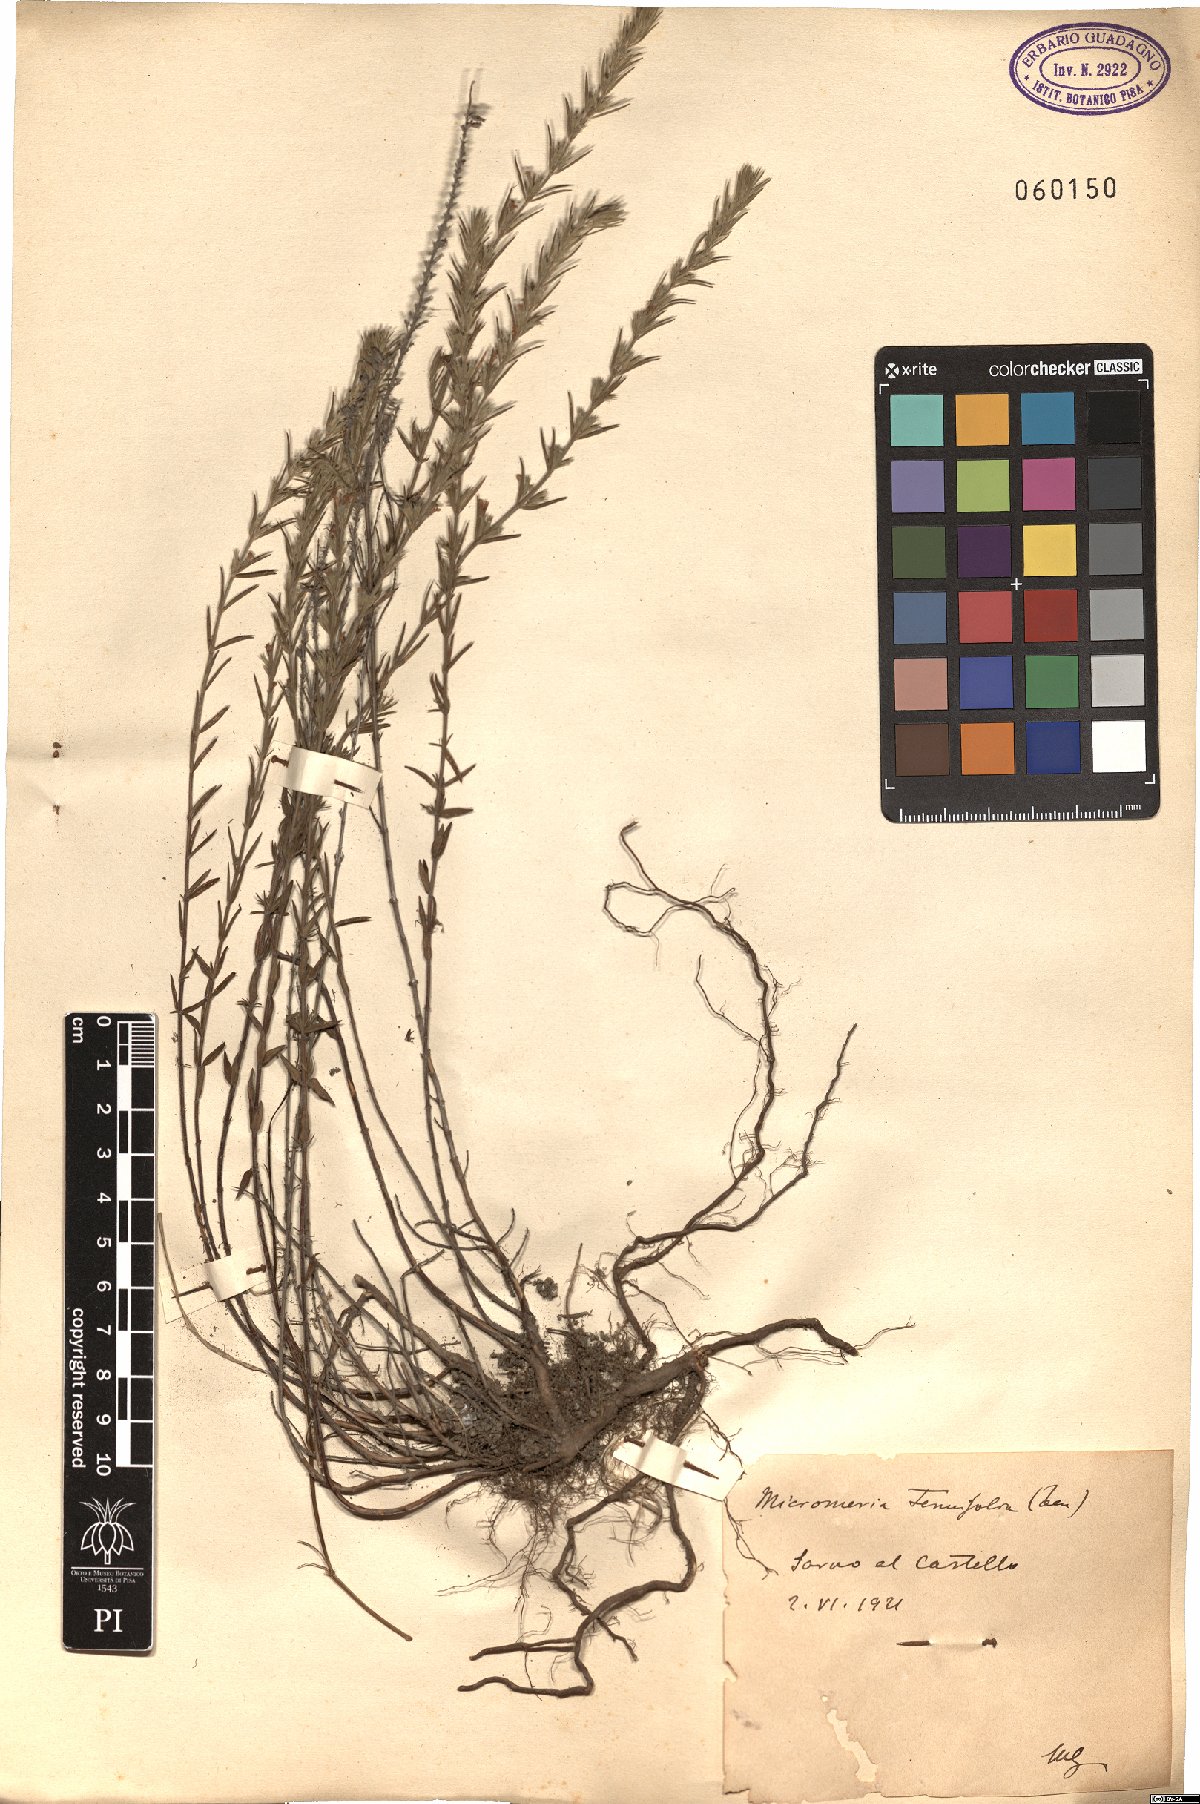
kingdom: Plantae
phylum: Tracheophyta
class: Magnoliopsida
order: Lamiales
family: Lamiaceae
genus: Micromeria
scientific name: Micromeria graeca
